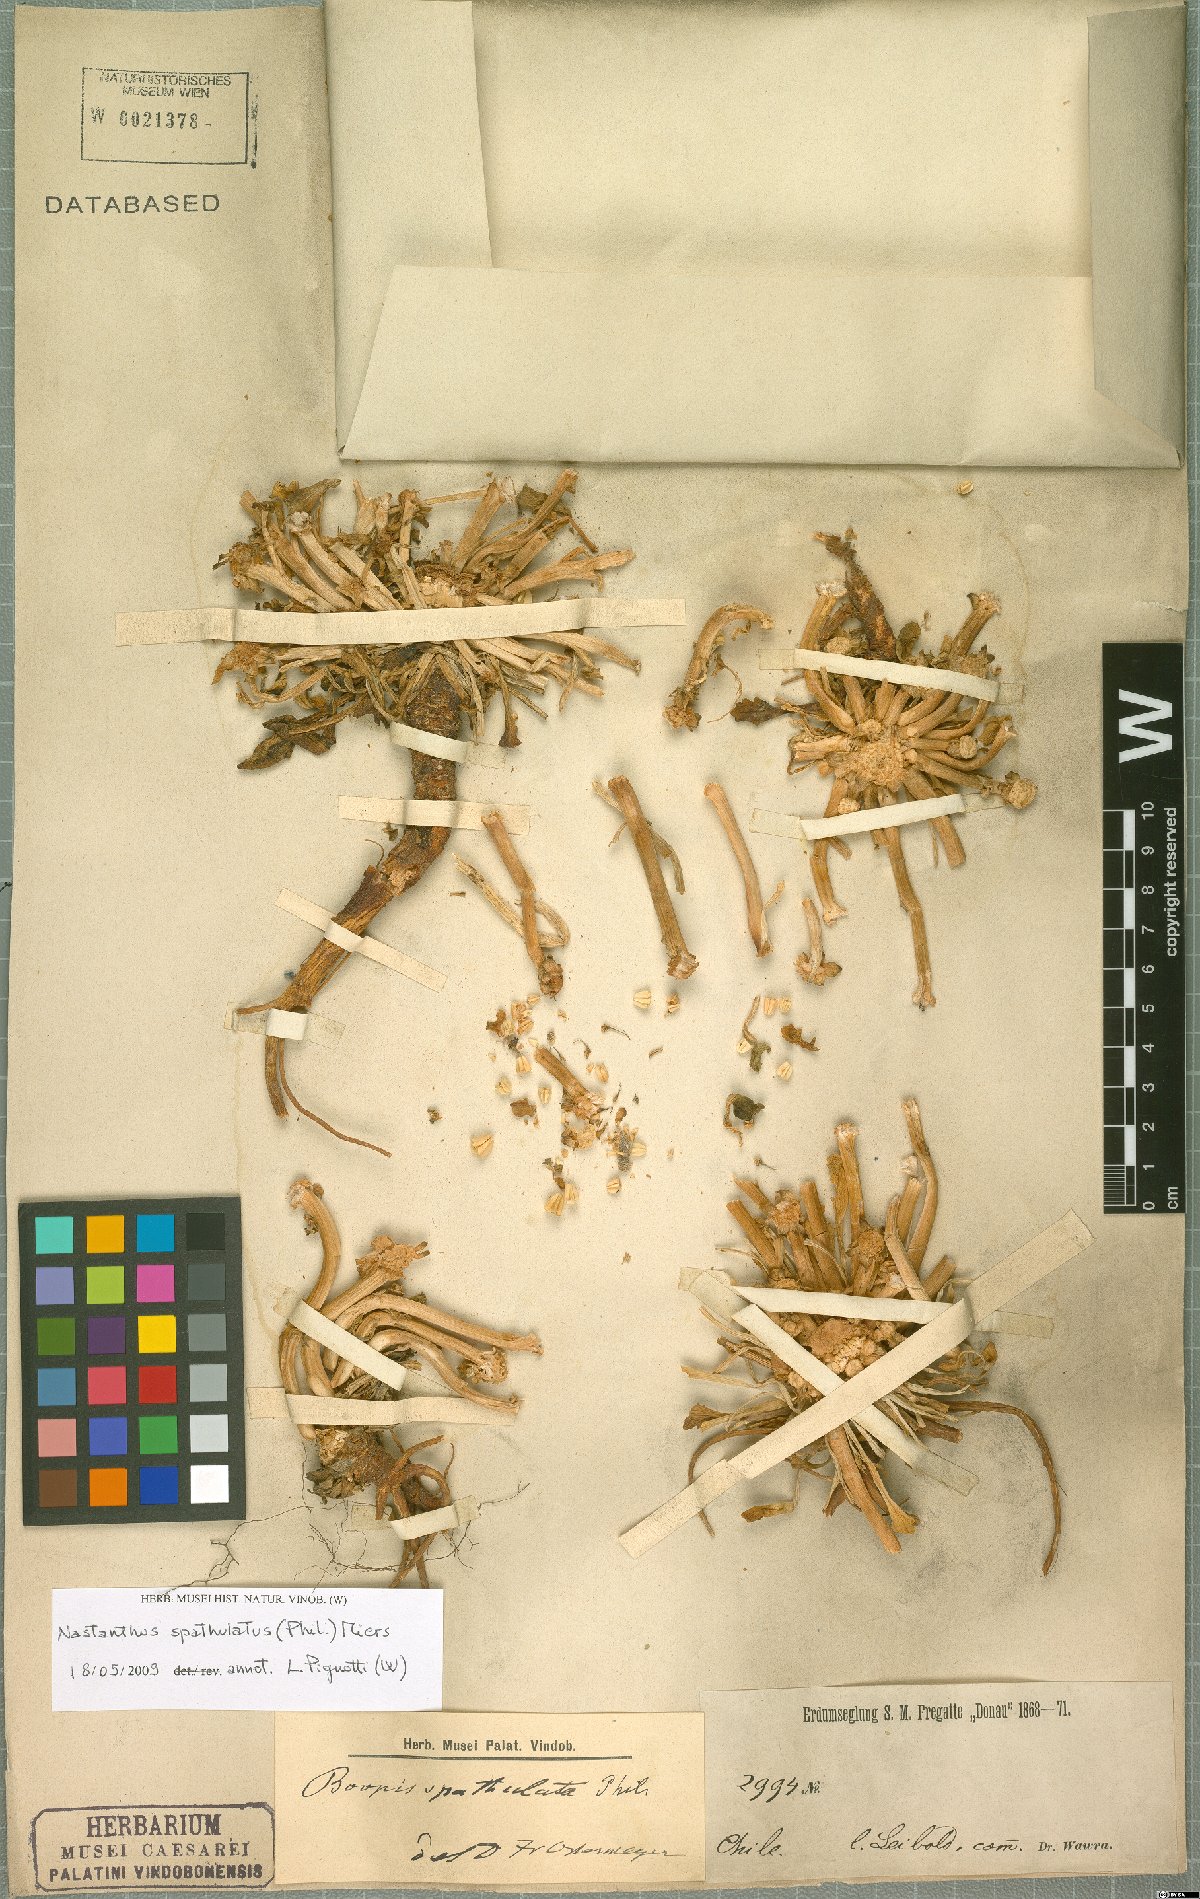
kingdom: Plantae
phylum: Tracheophyta
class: Magnoliopsida
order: Asterales
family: Calyceraceae
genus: Gamocarpha
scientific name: Gamocarpha scapigera
